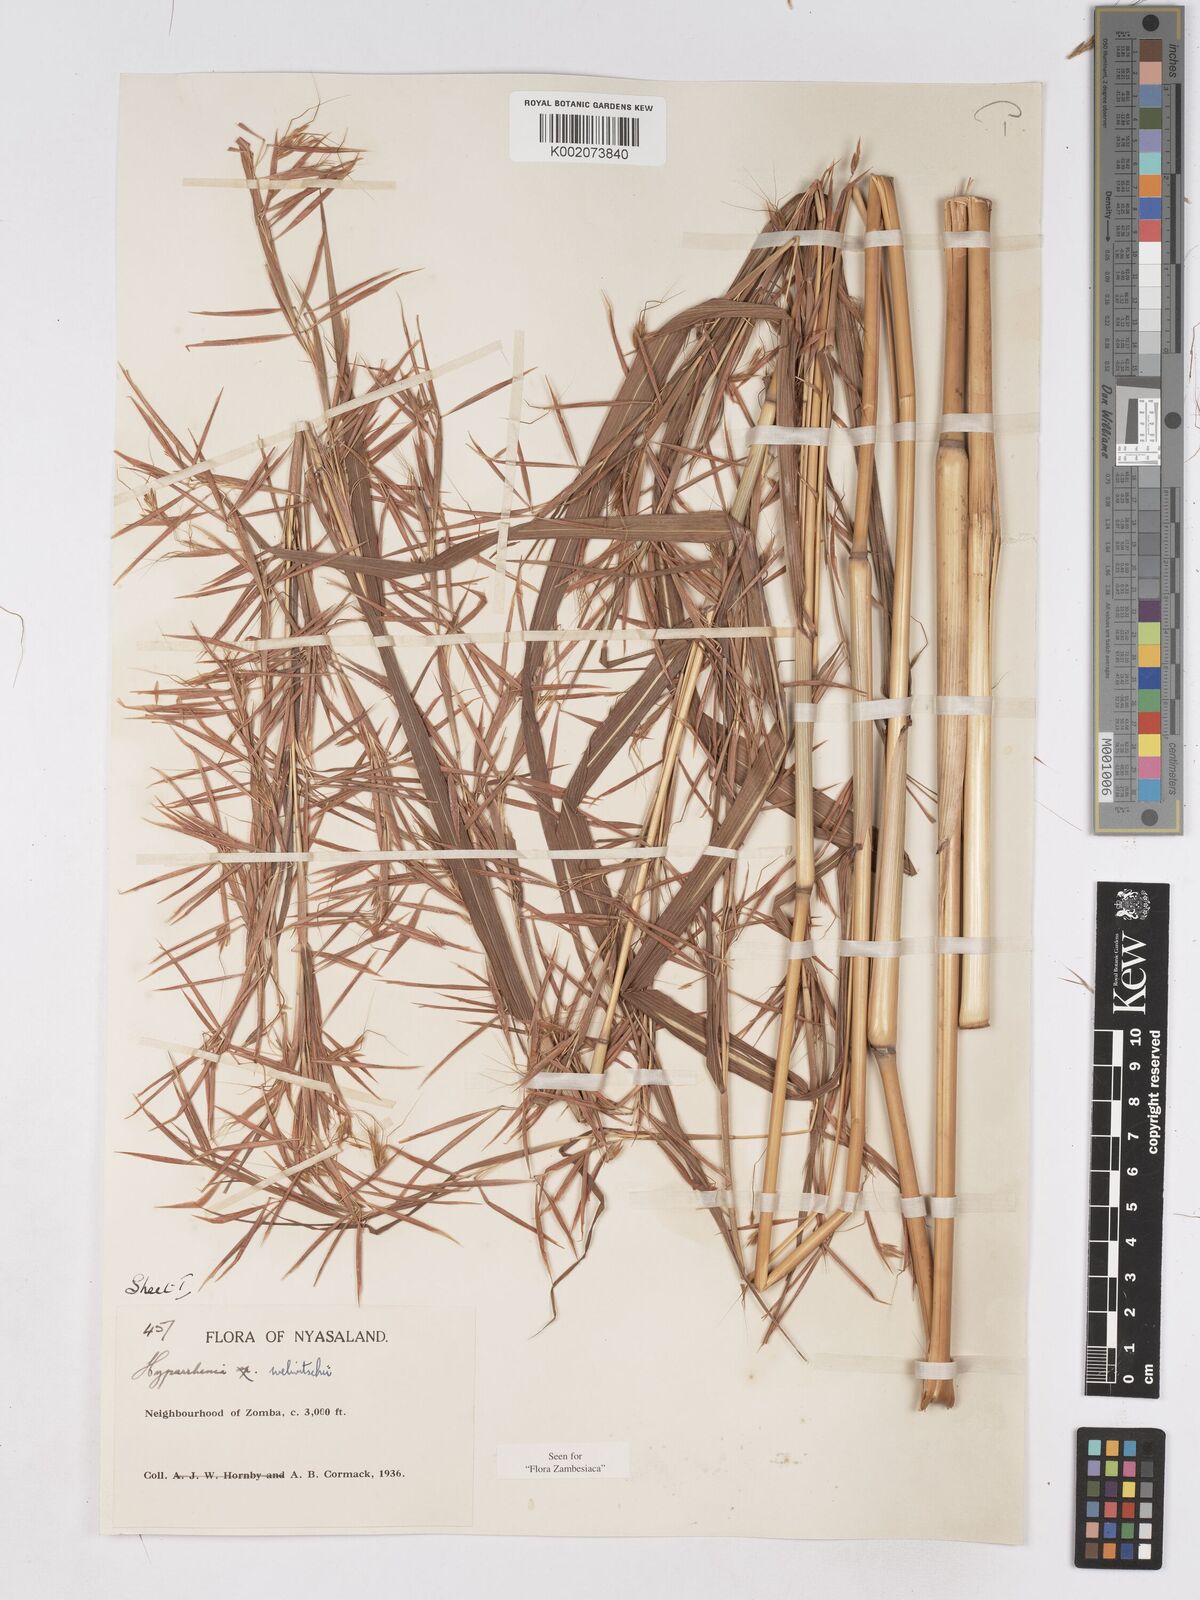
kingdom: Plantae
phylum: Tracheophyta
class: Liliopsida
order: Poales
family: Poaceae
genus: Hyparrhenia
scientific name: Hyparrhenia welwitschii
